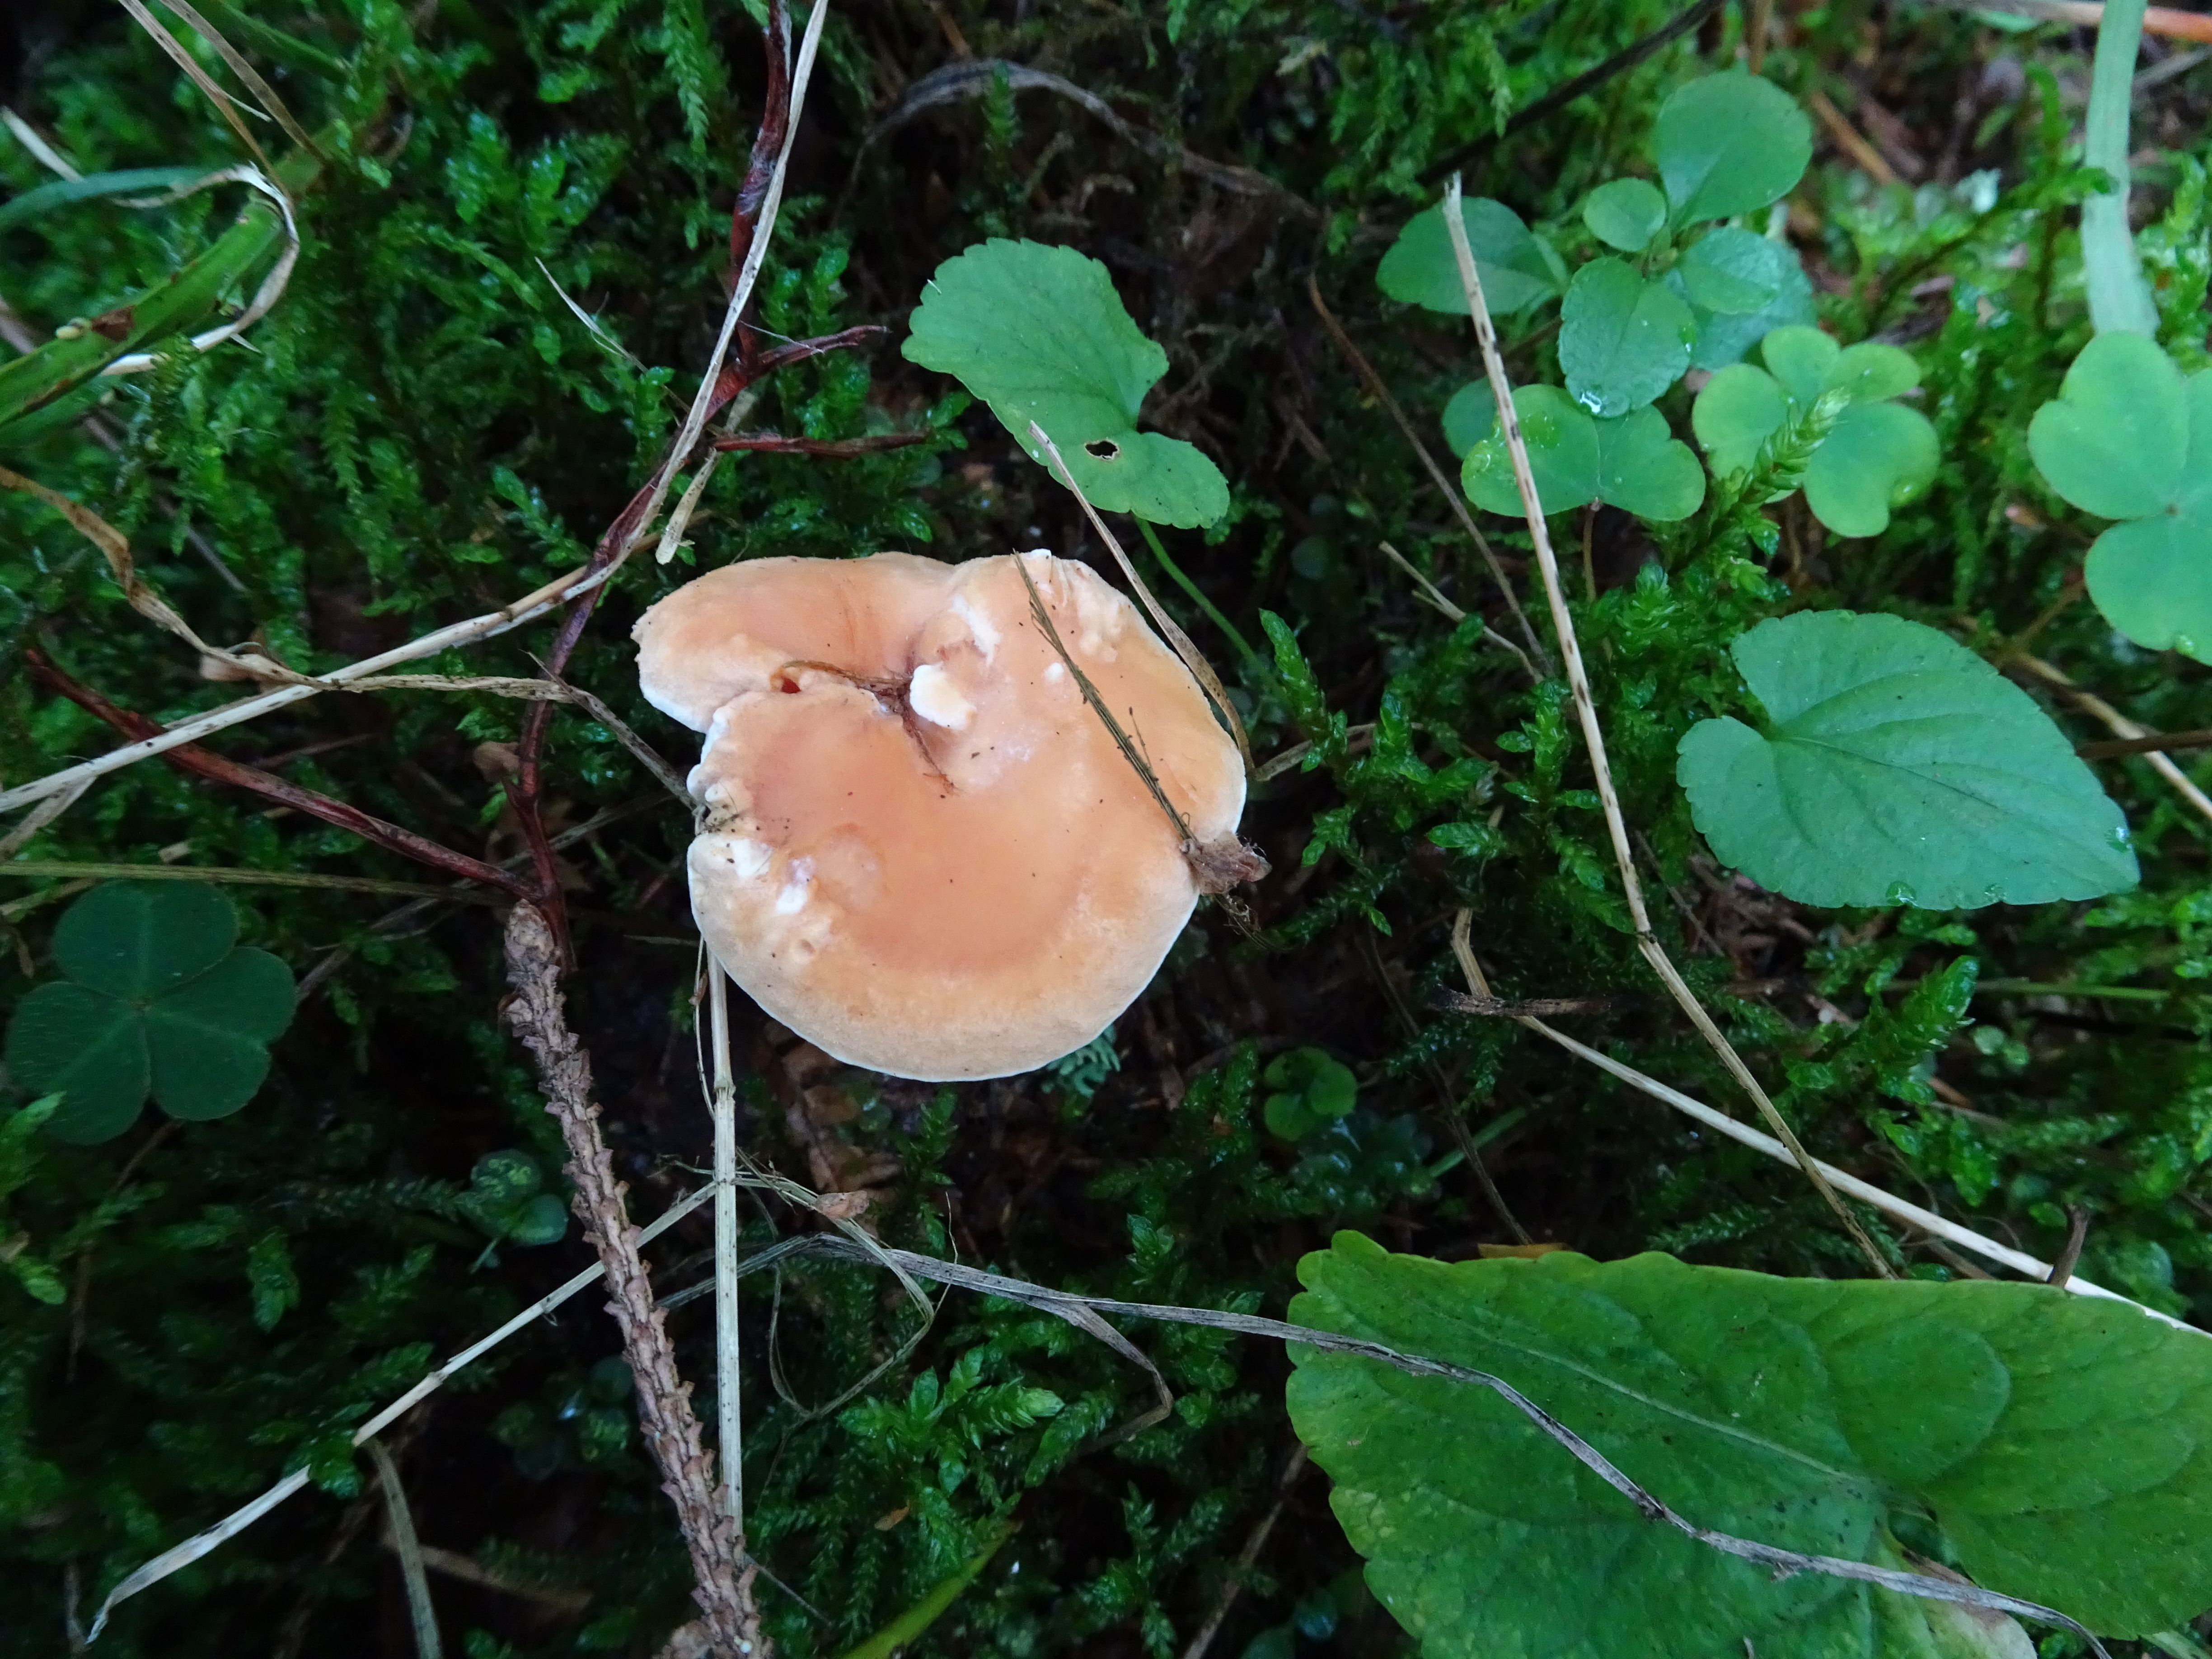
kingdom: Fungi
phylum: Basidiomycota
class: Agaricomycetes
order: Cantharellales
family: Hydnaceae
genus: Hydnum
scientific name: Hydnum umbilicatum
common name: Umbilicate hedgehog
